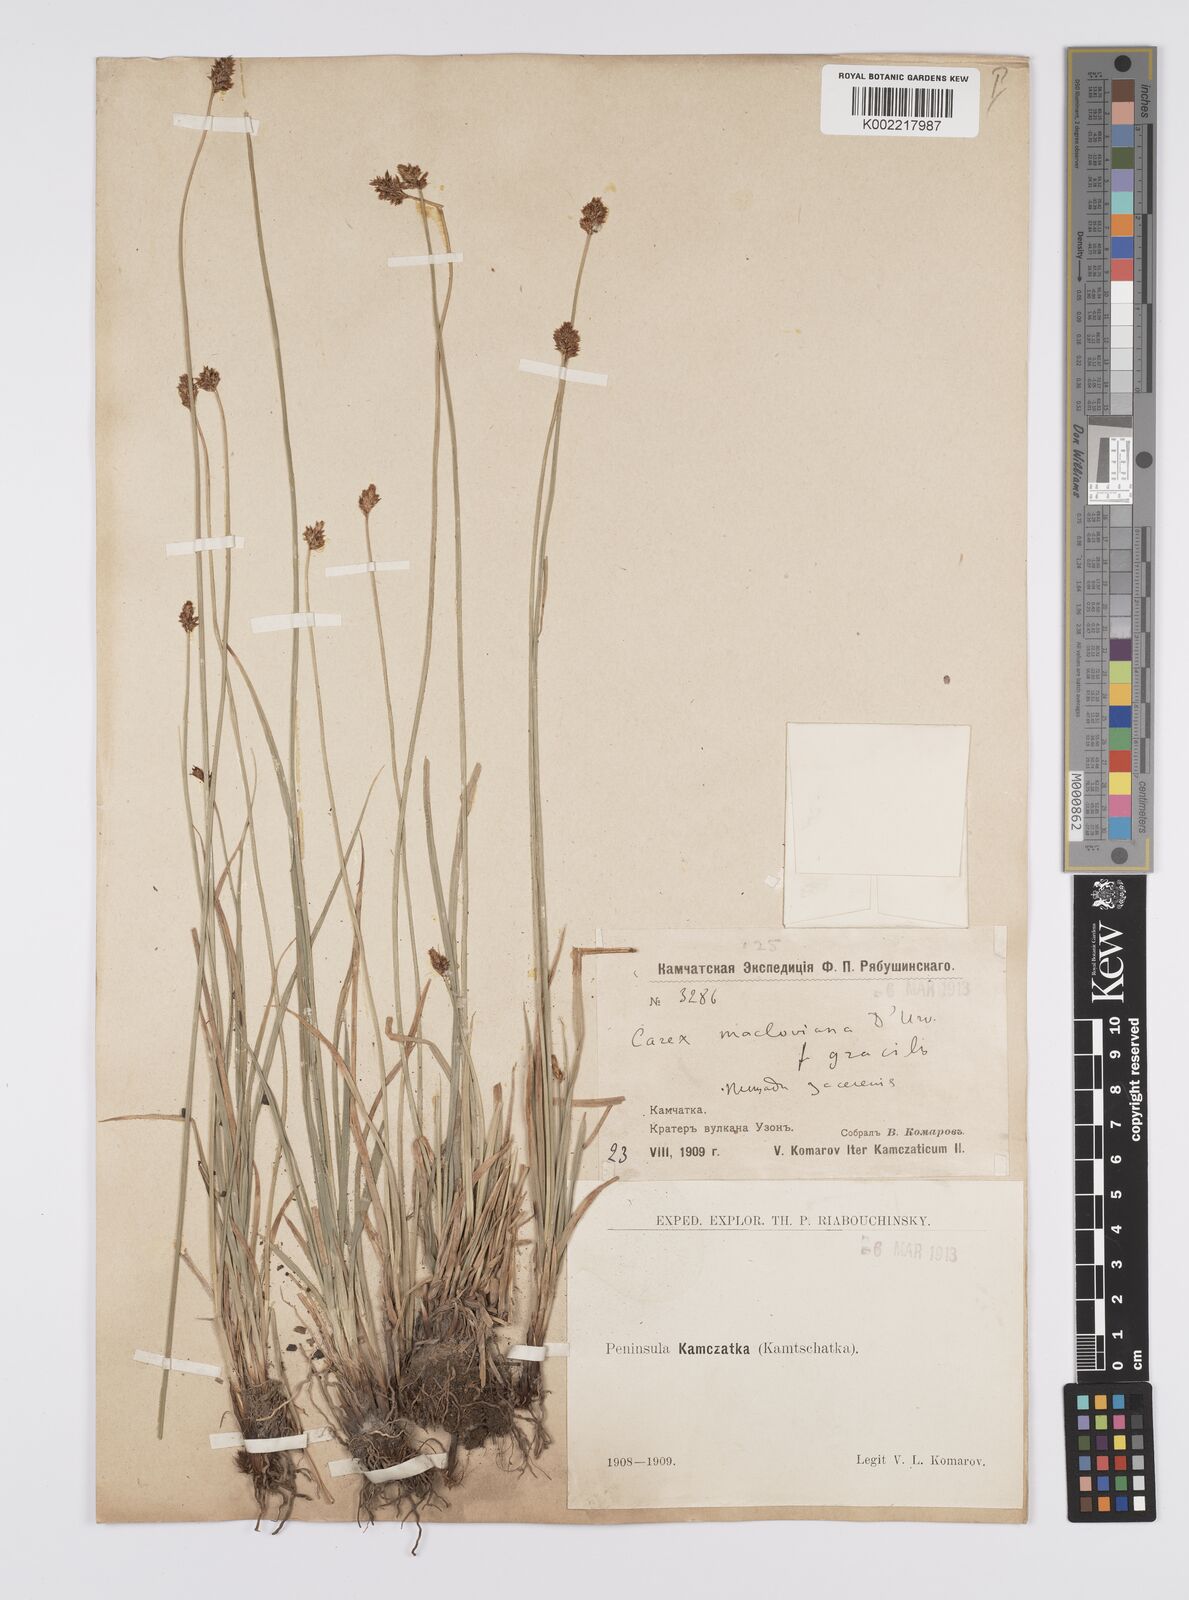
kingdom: Plantae
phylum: Tracheophyta
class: Liliopsida
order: Poales
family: Cyperaceae
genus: Carex
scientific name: Carex macloviana
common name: Falkland island sedge
